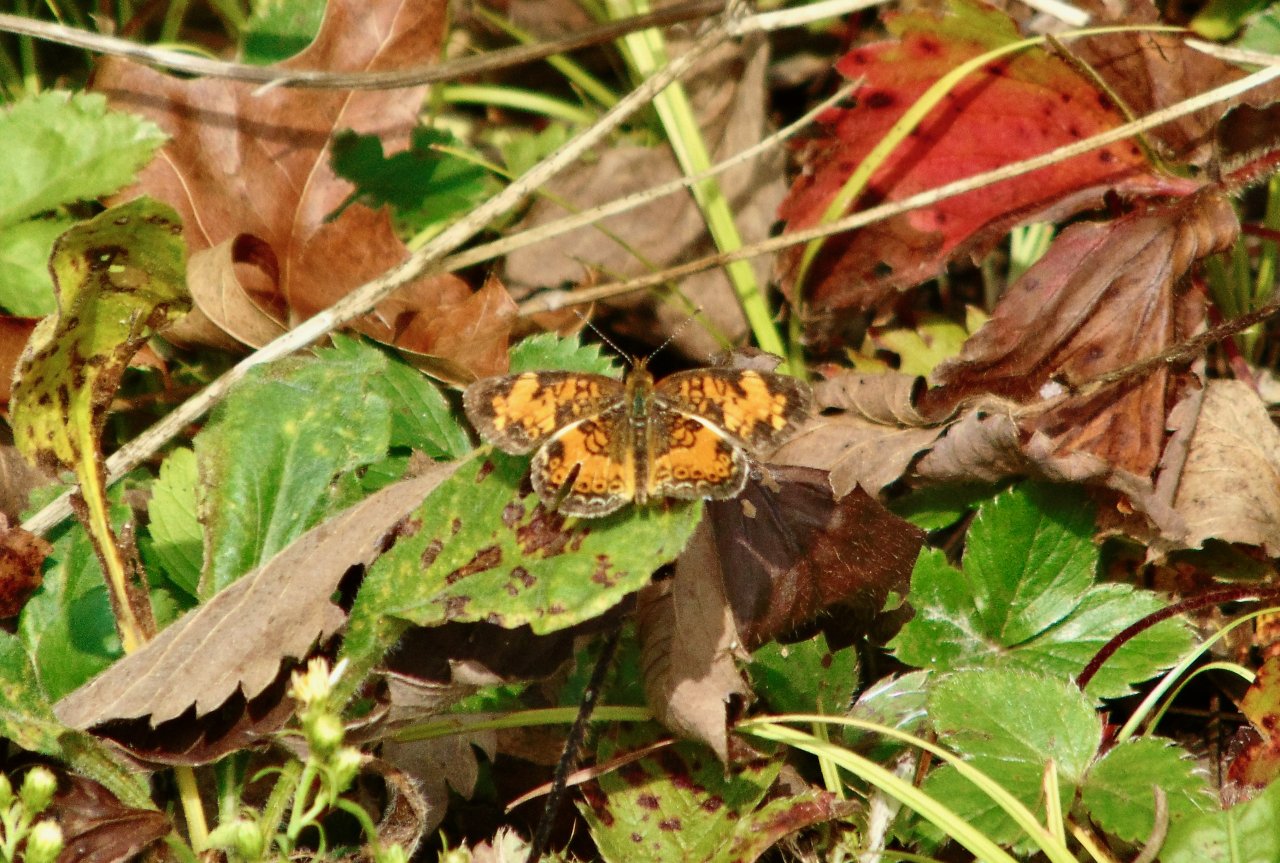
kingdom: Animalia
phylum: Arthropoda
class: Insecta
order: Lepidoptera
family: Nymphalidae
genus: Phyciodes
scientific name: Phyciodes tharos
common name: Pearl Crescent
